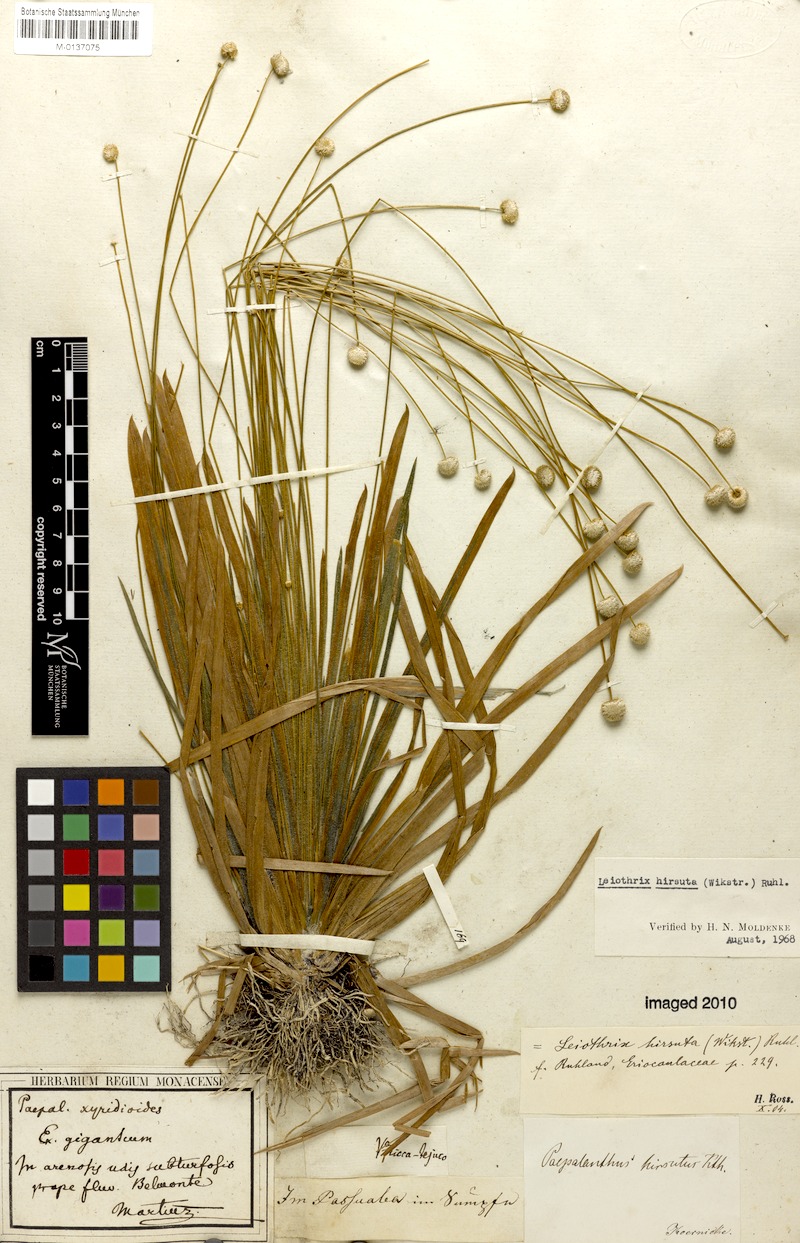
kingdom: Plantae
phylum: Tracheophyta
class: Liliopsida
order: Poales
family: Eriocaulaceae
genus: Leiothrix
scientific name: Leiothrix hirsuta
